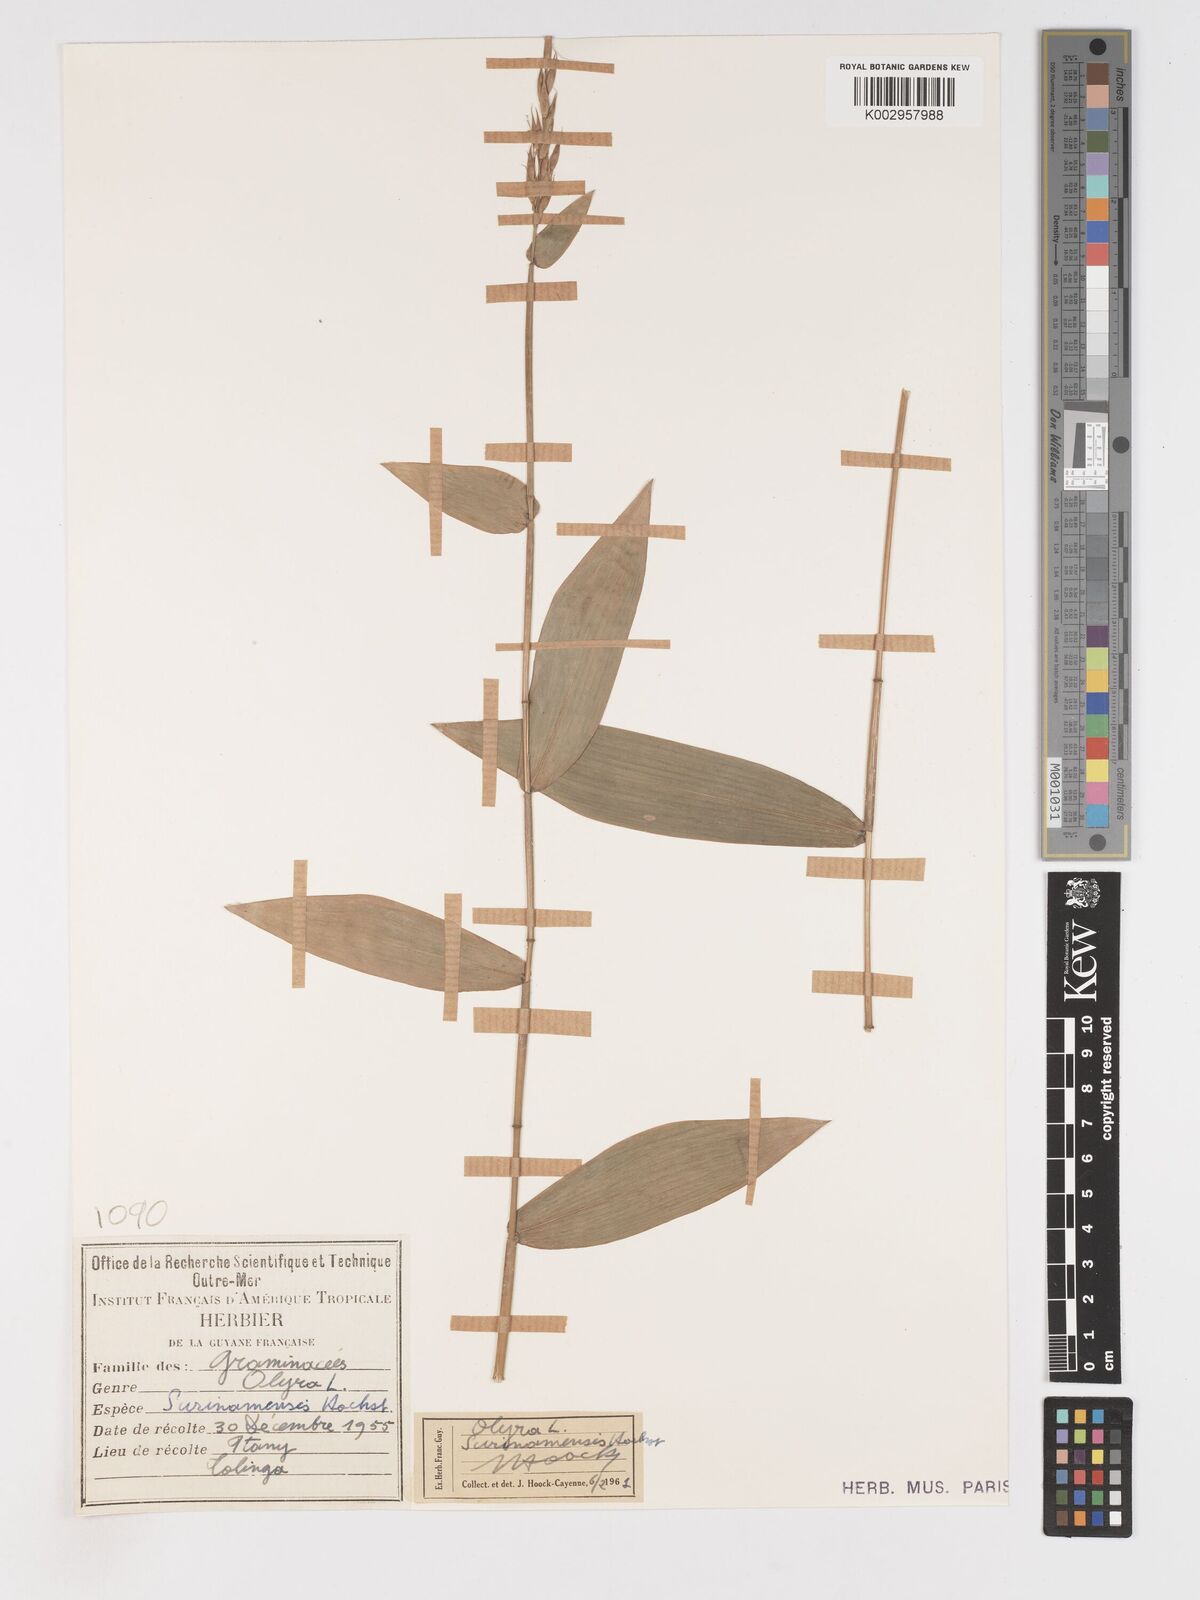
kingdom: Plantae
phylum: Tracheophyta
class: Liliopsida
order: Poales
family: Poaceae
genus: Olyra
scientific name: Olyra longifolia
